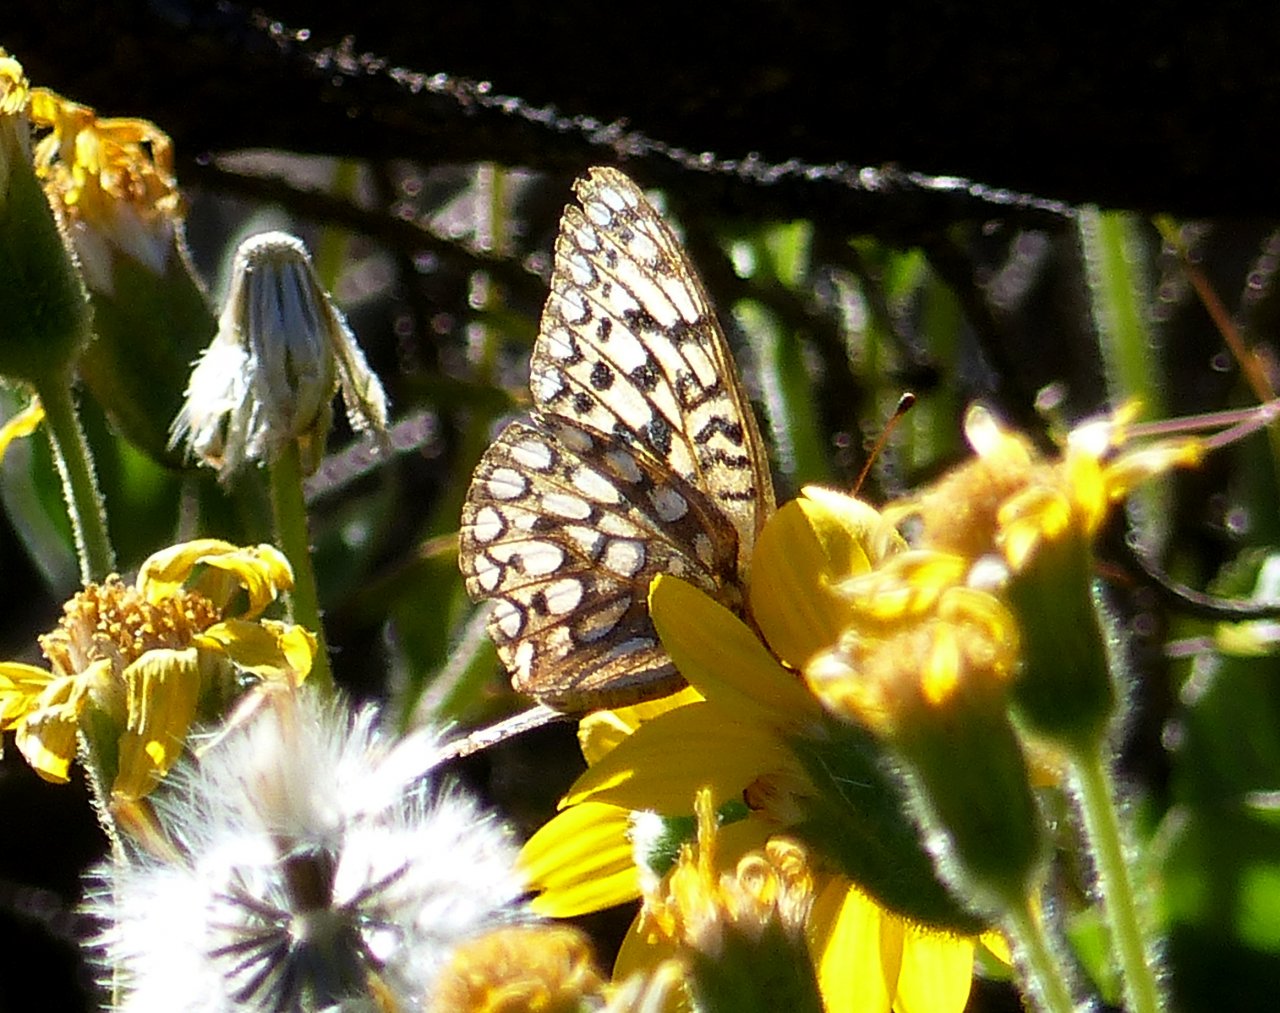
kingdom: Animalia
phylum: Arthropoda
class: Insecta
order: Lepidoptera
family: Nymphalidae
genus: Speyeria
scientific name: Speyeria callippe
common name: Callippe Fritillary
